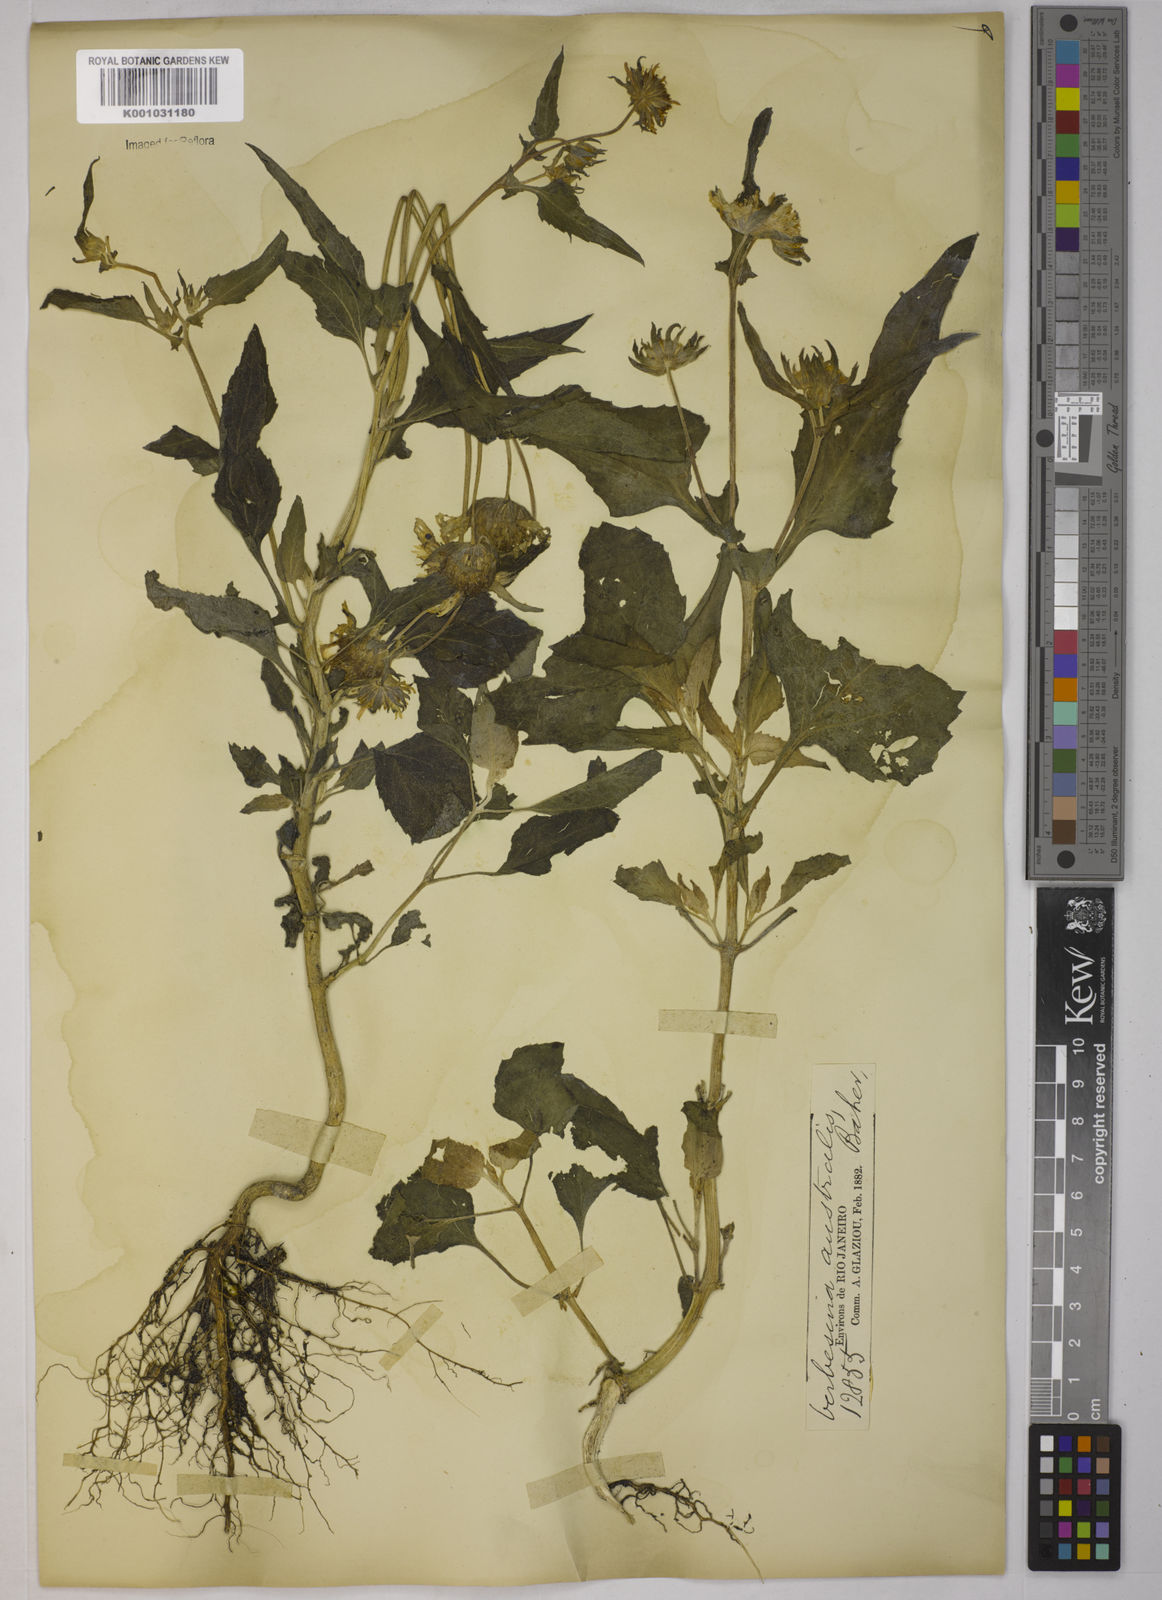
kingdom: Plantae
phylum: Tracheophyta
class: Magnoliopsida
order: Asterales
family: Asteraceae
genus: Verbesina
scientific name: Verbesina
